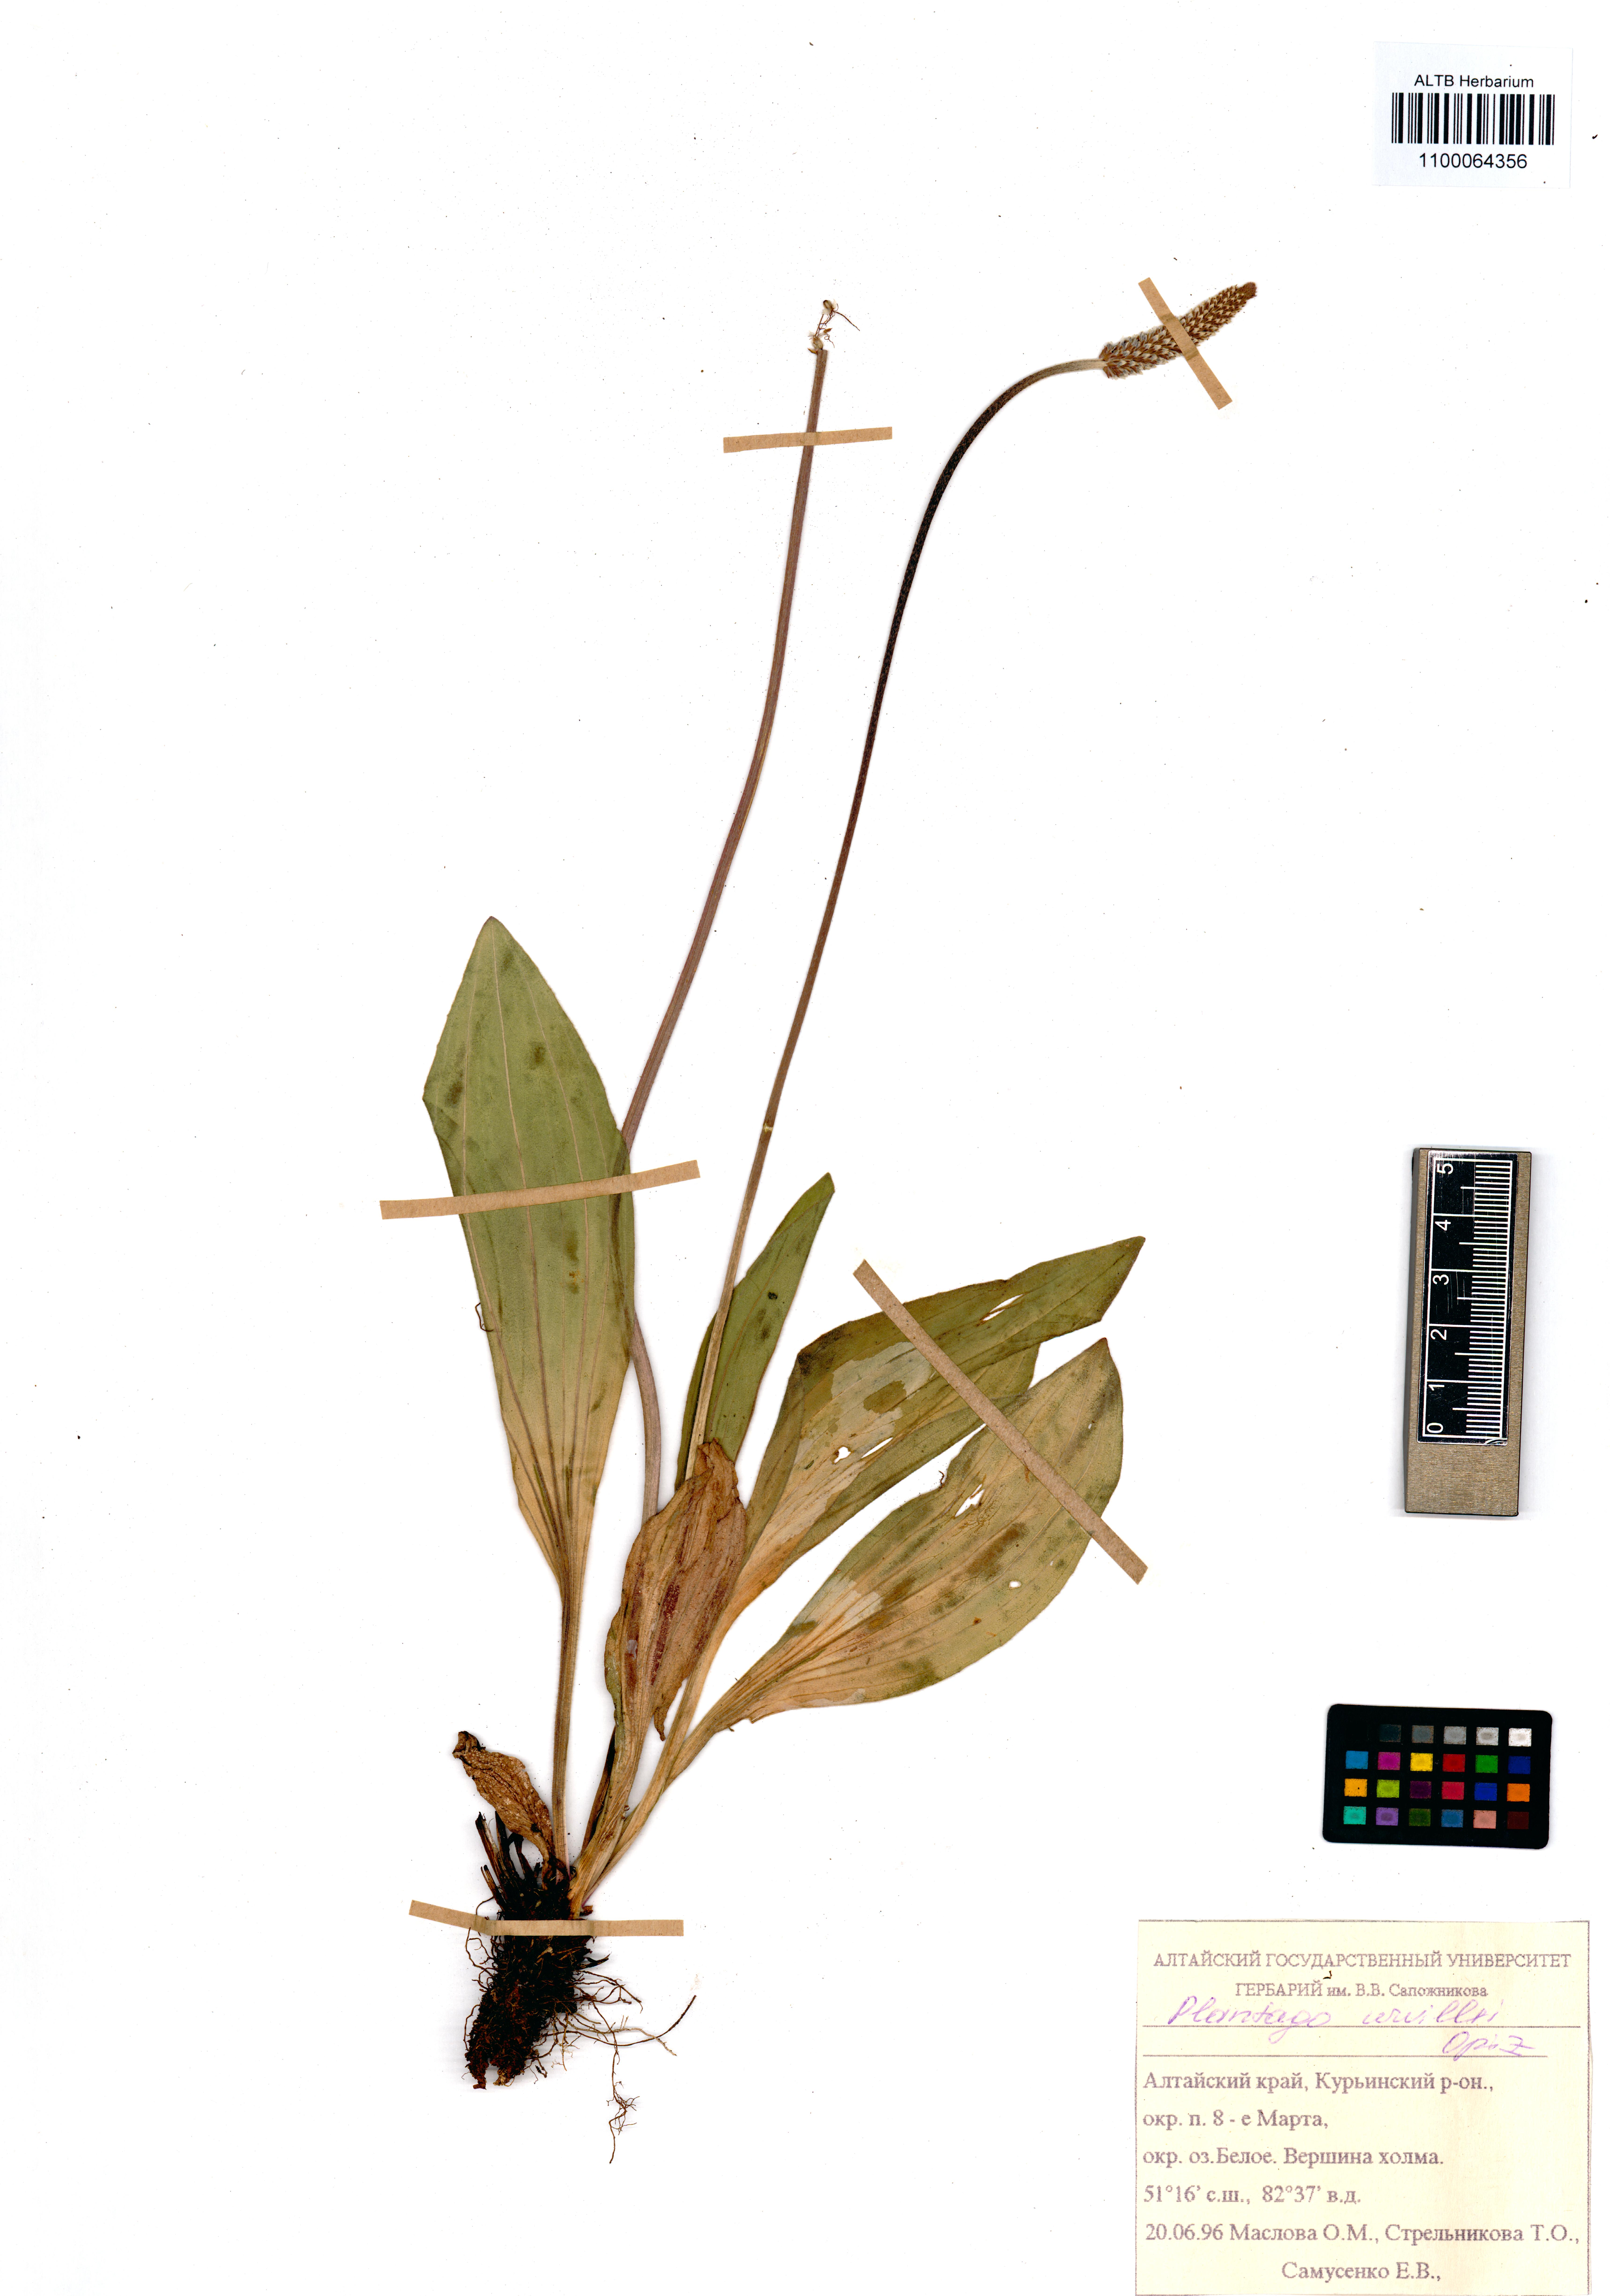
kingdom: Plantae
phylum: Tracheophyta
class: Magnoliopsida
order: Lamiales
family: Plantaginaceae
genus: Plantago
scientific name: Plantago urvillei
